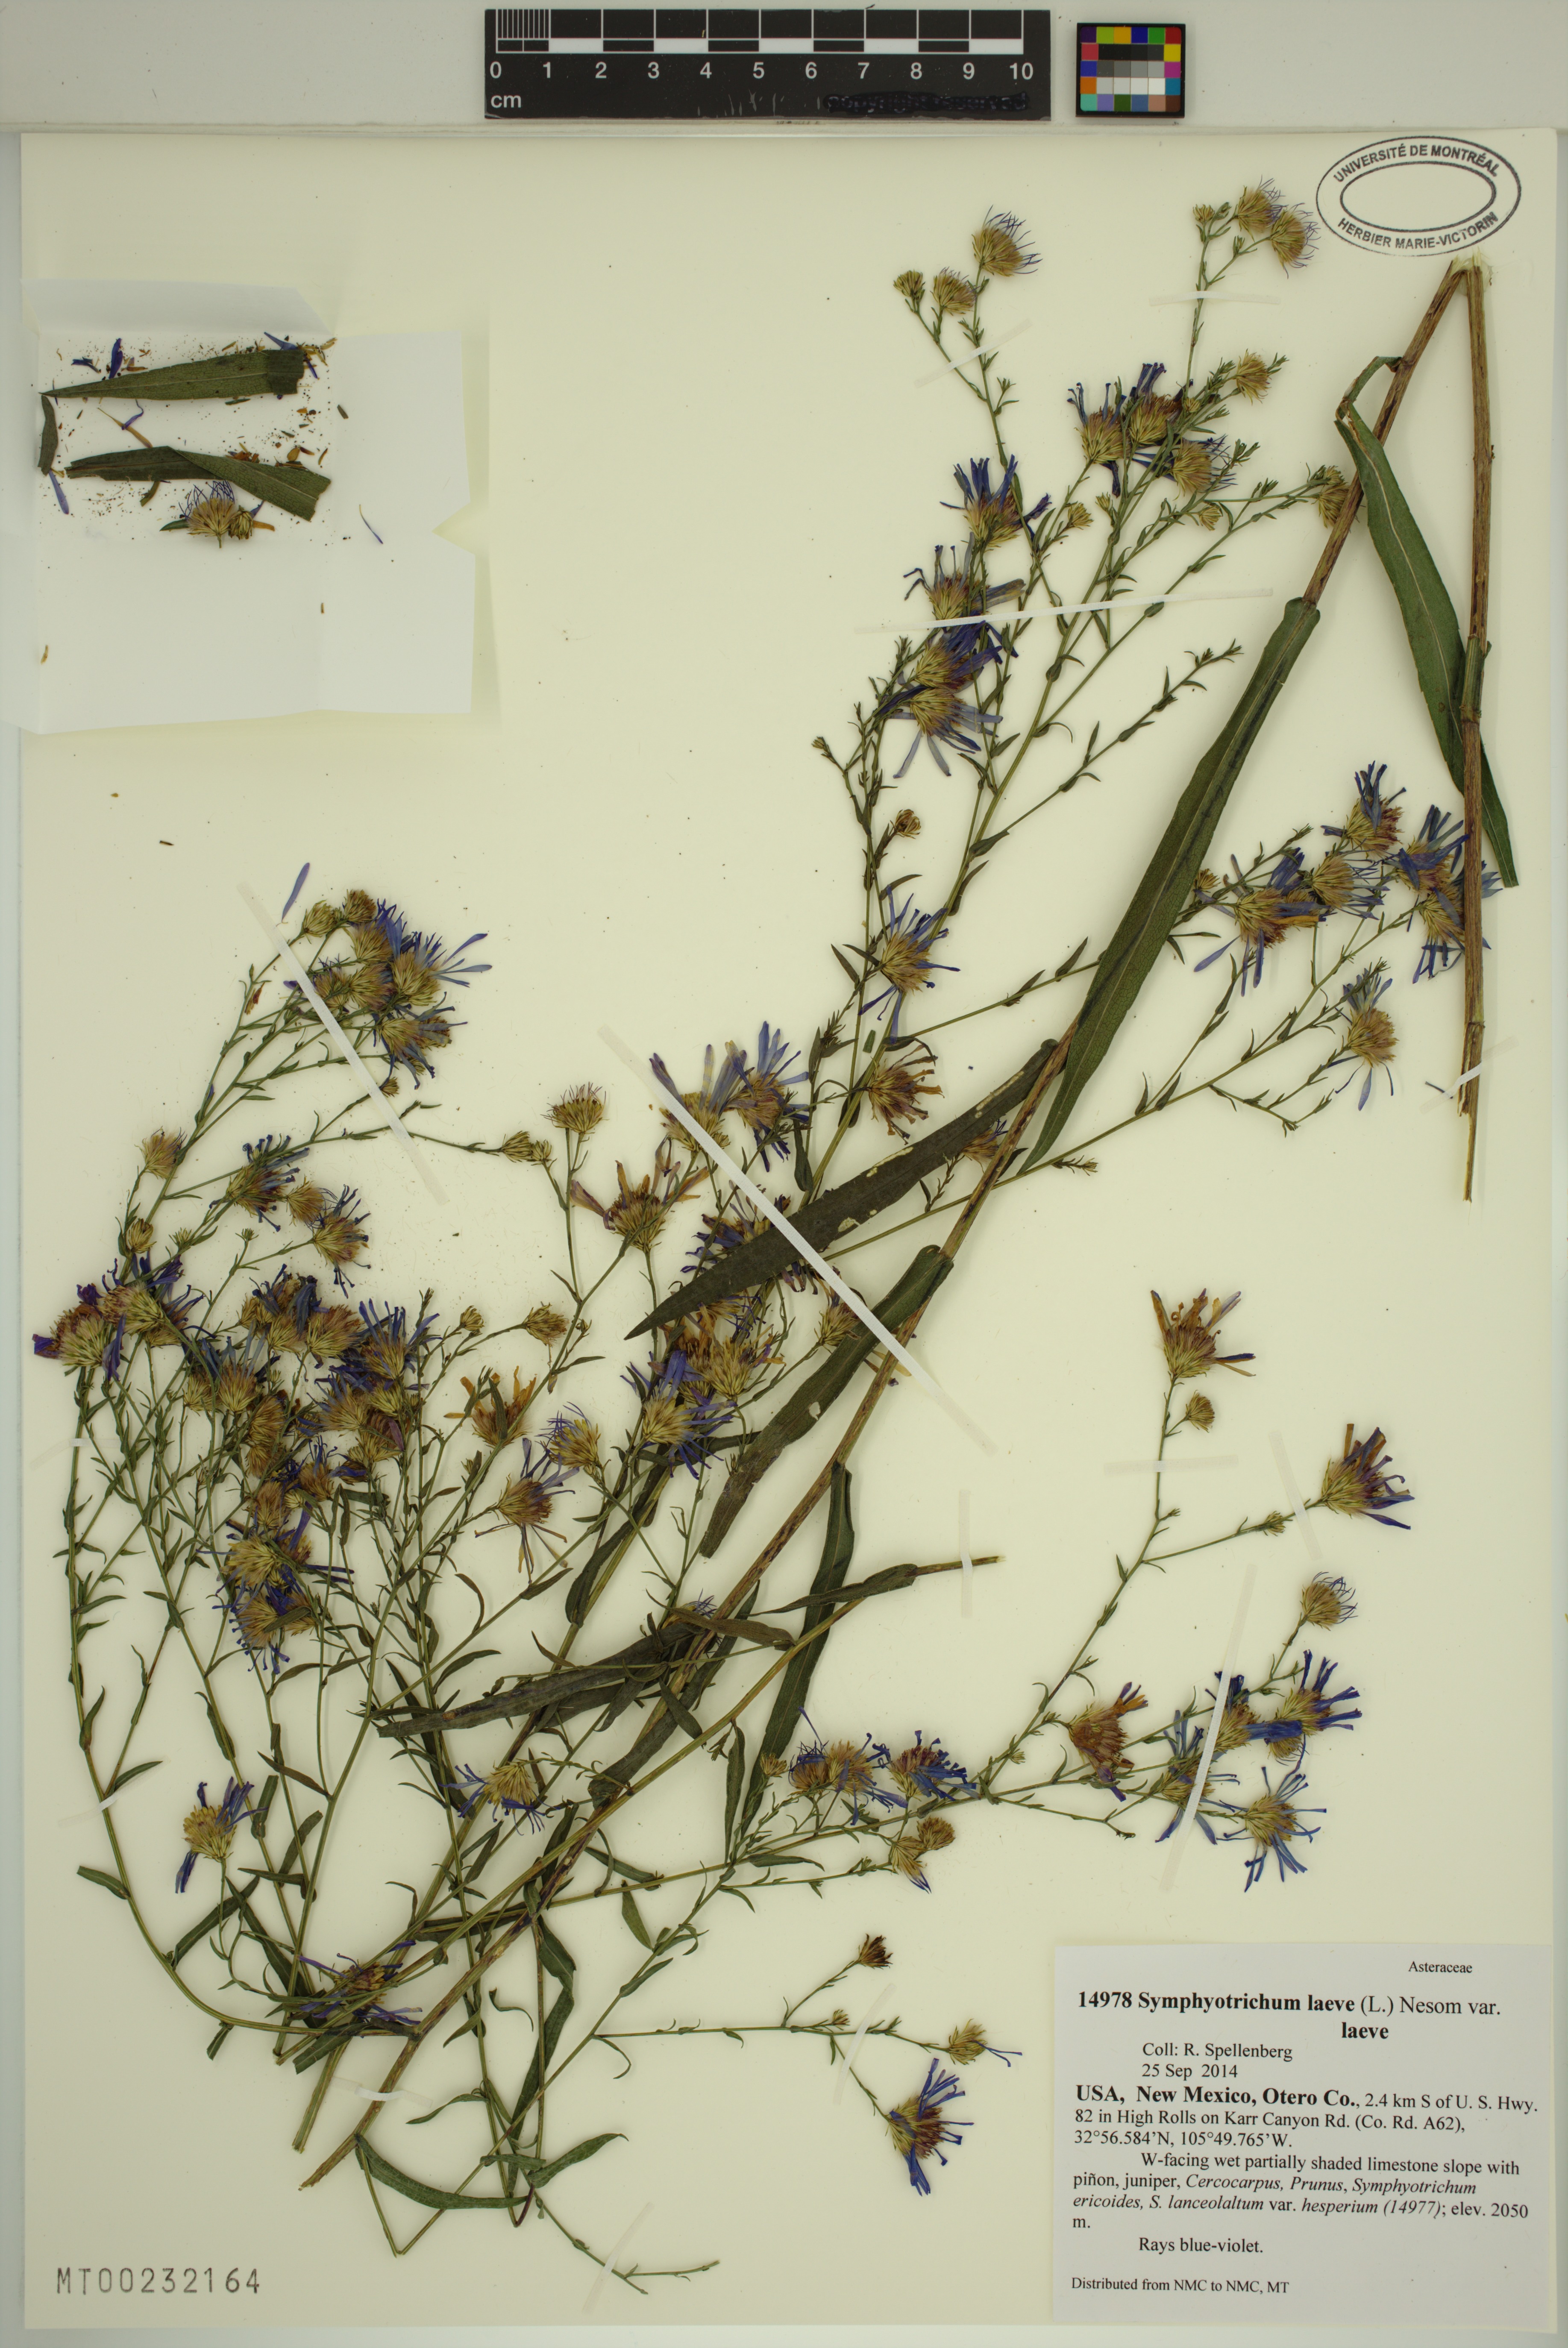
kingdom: Plantae
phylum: Tracheophyta
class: Magnoliopsida
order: Asterales
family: Asteraceae
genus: Symphyotrichum
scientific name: Symphyotrichum laeve
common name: Glaucous aster
